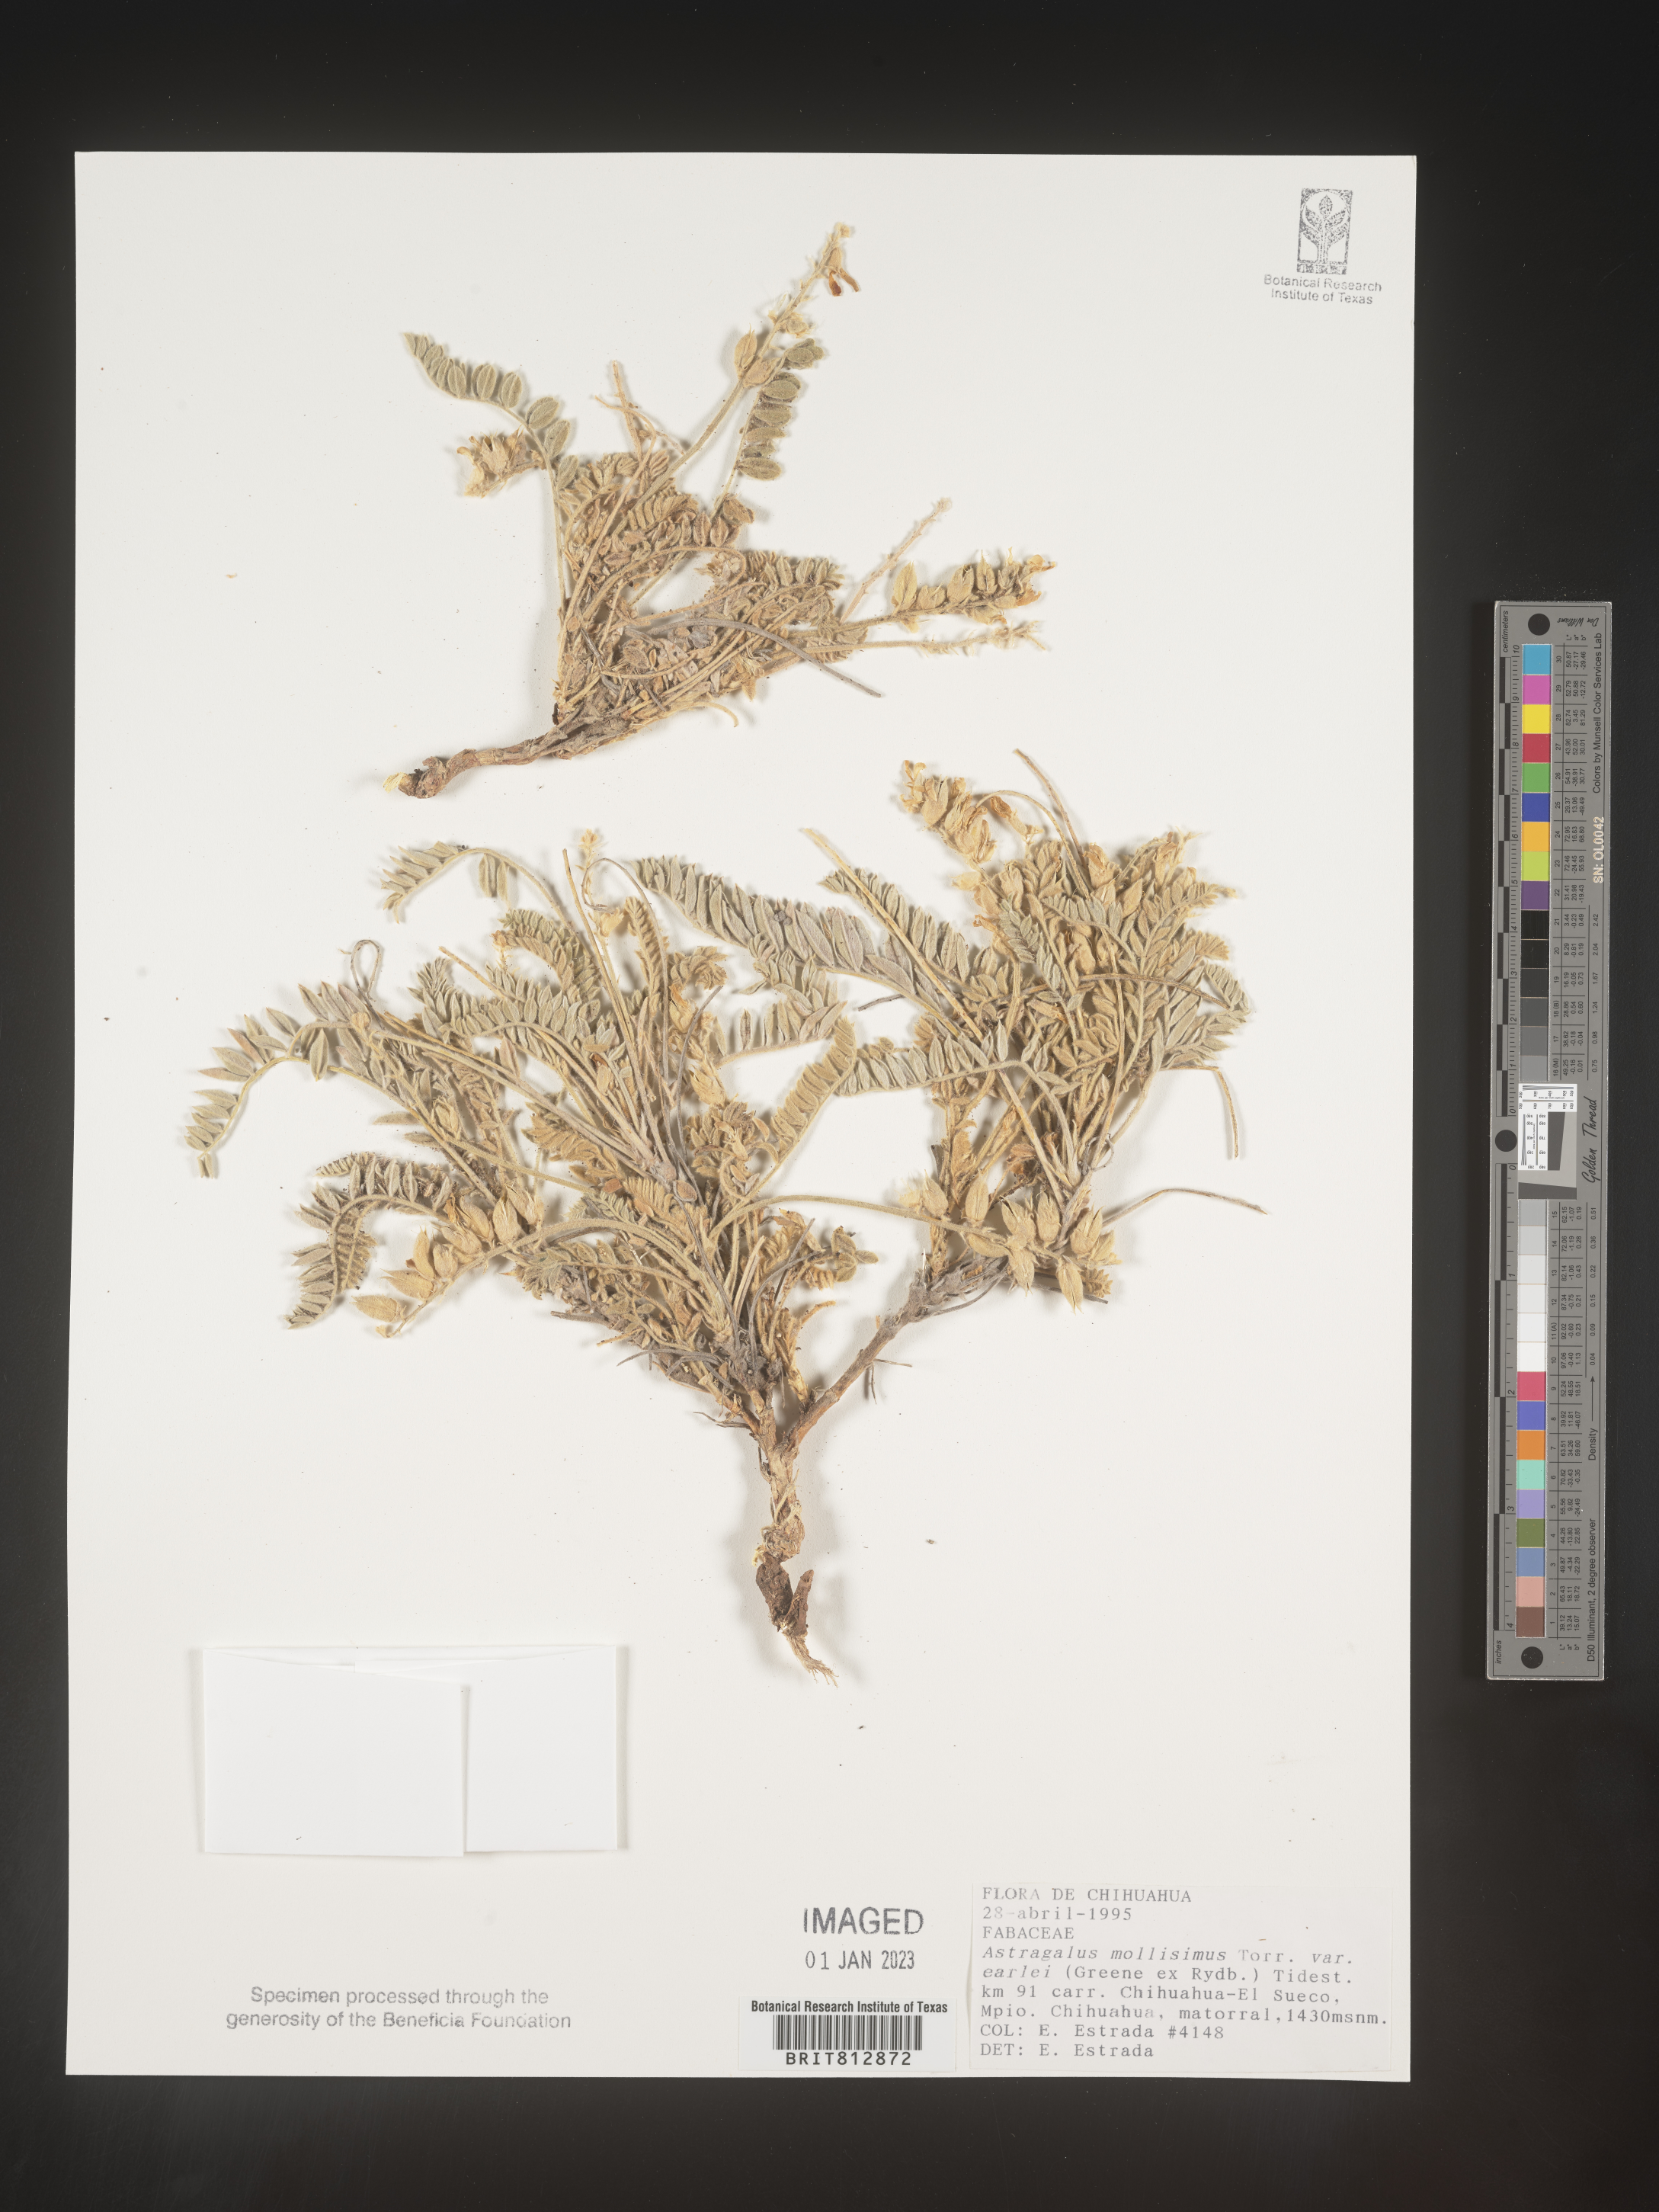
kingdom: Plantae
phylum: Tracheophyta
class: Magnoliopsida
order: Fabales
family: Fabaceae
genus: Astragalus
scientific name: Astragalus
